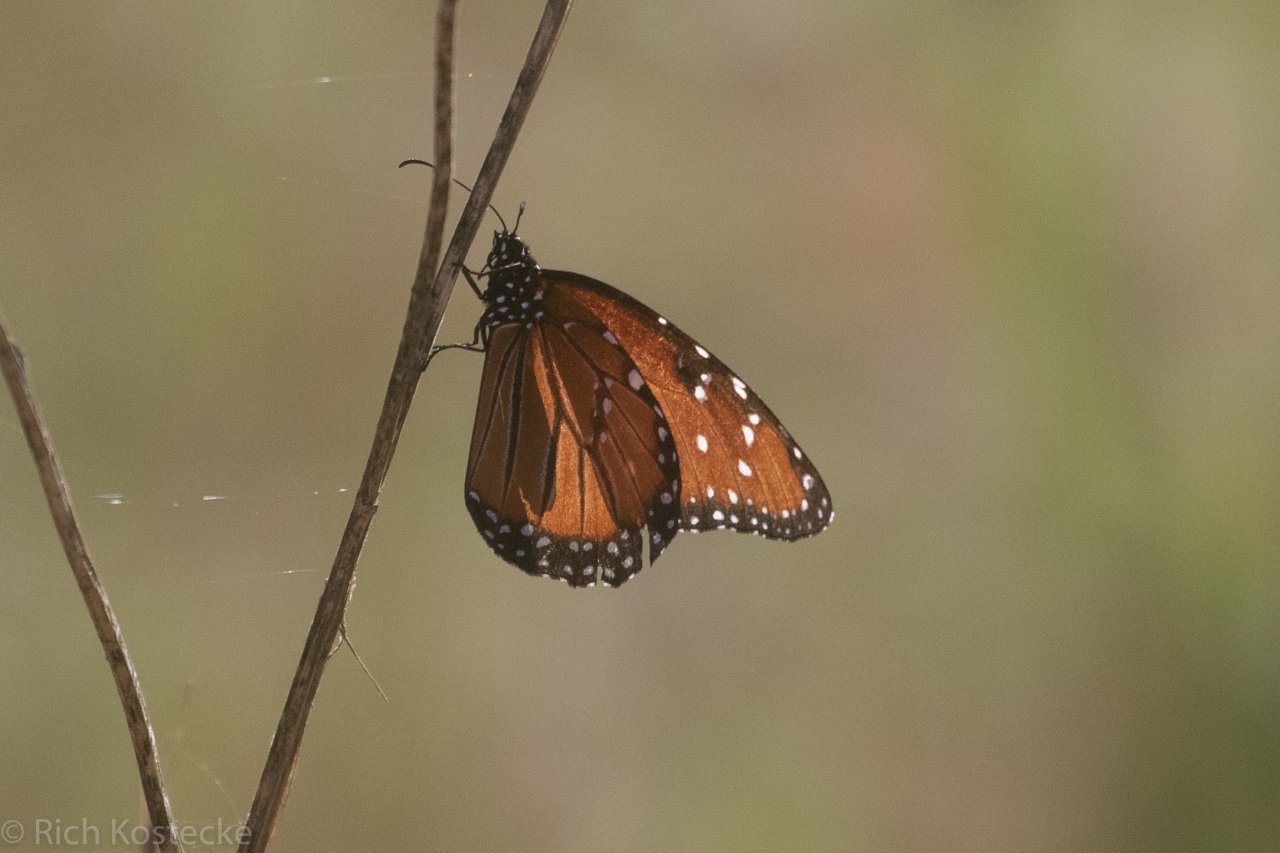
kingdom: Animalia
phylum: Arthropoda
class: Insecta
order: Lepidoptera
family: Nymphalidae
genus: Danaus
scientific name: Danaus gilippus
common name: Queen
